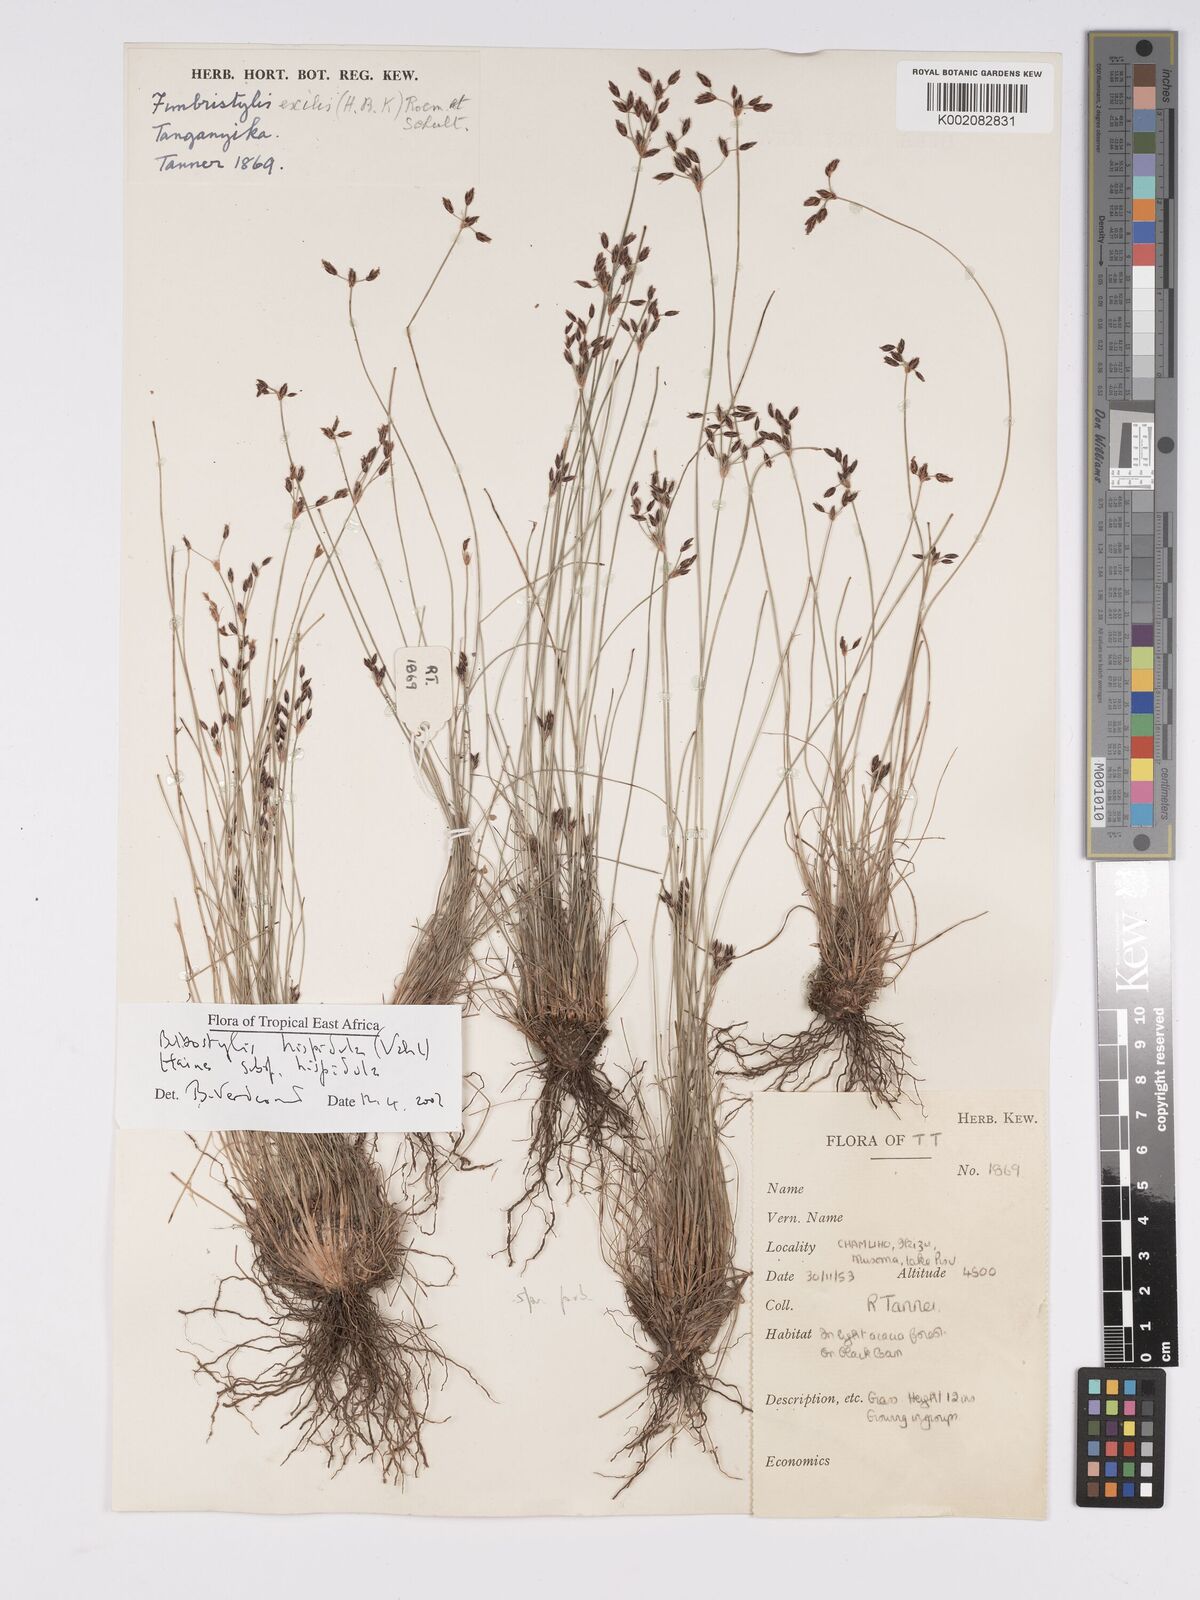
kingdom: Plantae
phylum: Tracheophyta
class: Liliopsida
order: Poales
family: Cyperaceae
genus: Bulbostylis
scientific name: Bulbostylis hispidula
